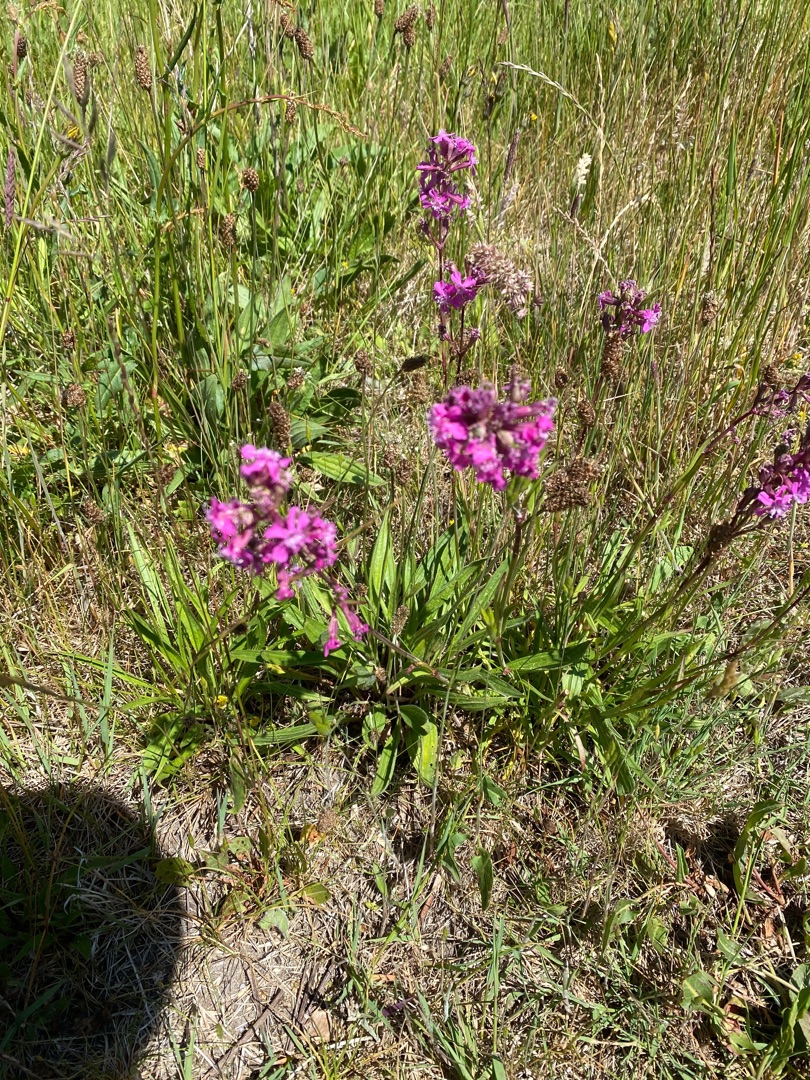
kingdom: Plantae
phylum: Tracheophyta
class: Magnoliopsida
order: Caryophyllales
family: Caryophyllaceae
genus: Viscaria
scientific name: Viscaria vulgaris
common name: Tjærenellike
